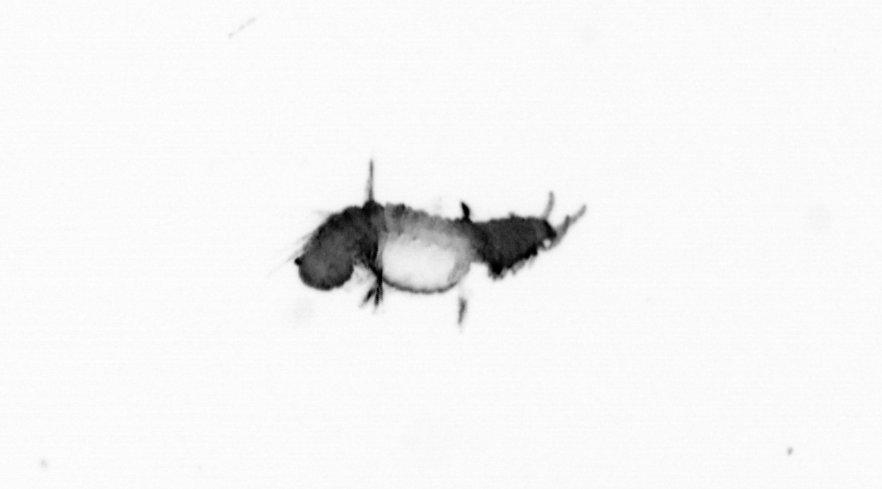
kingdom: Animalia
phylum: Annelida
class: Polychaeta
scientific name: Polychaeta
